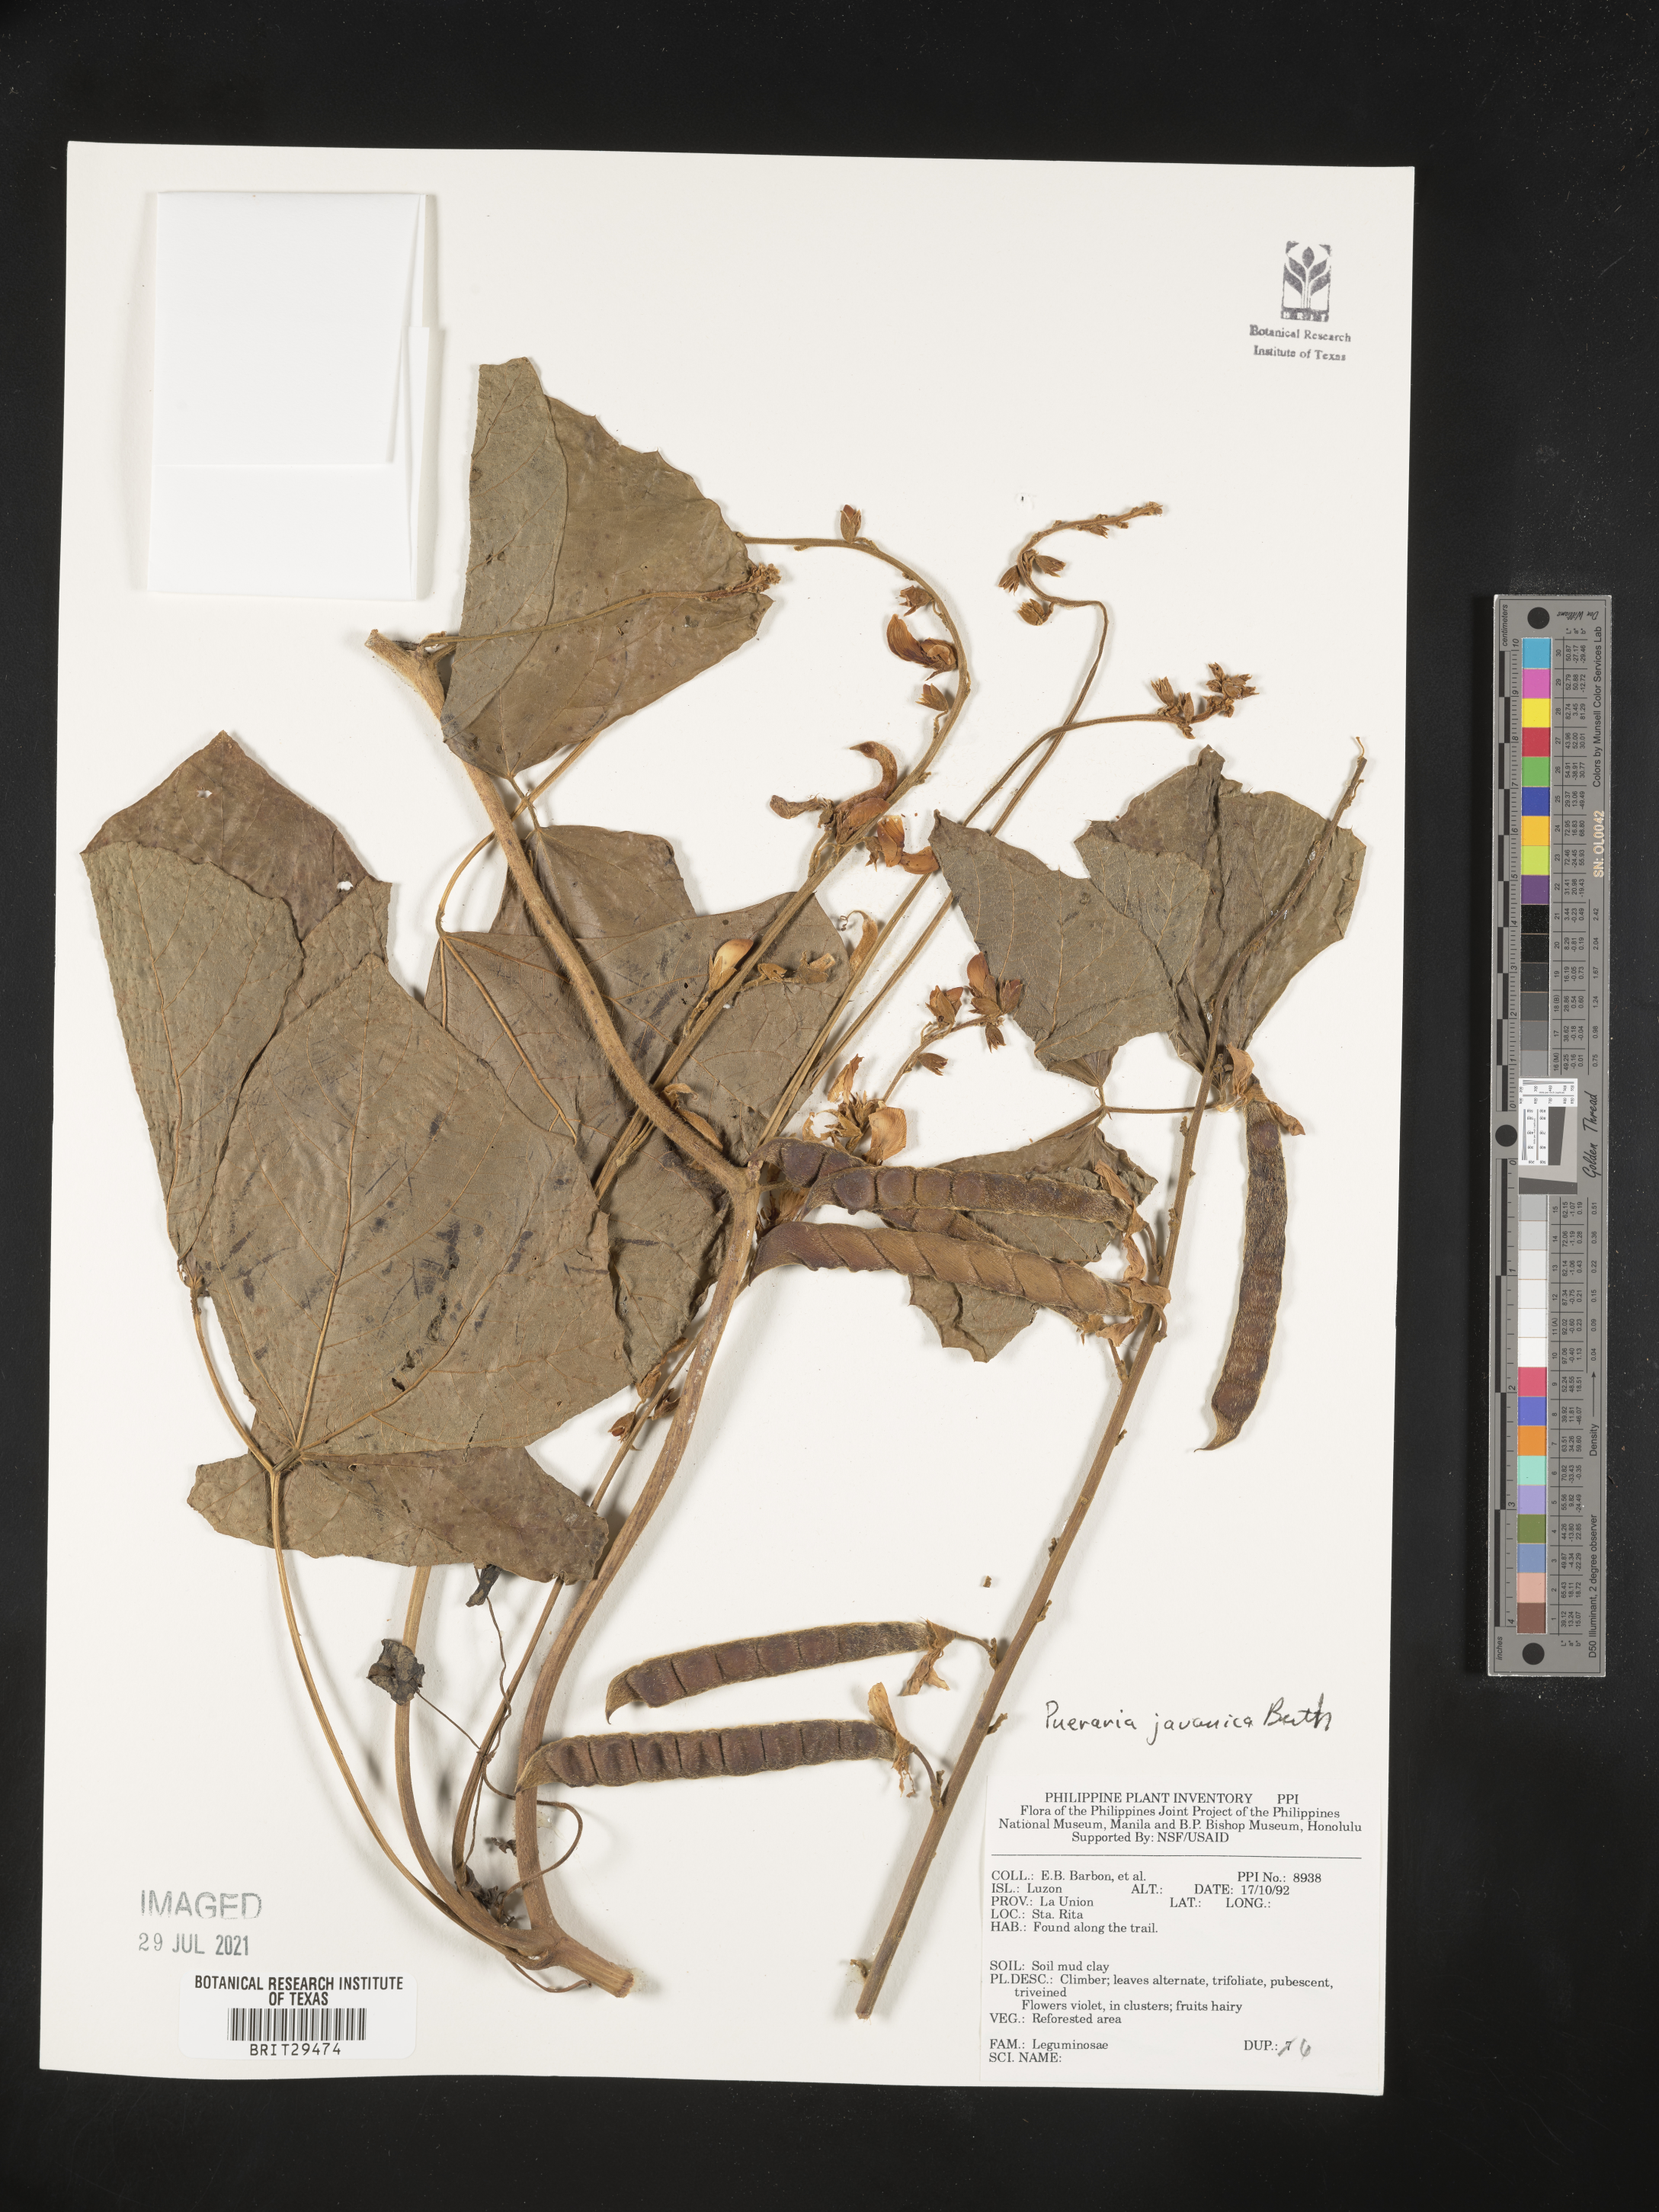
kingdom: Plantae
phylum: Tracheophyta
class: Magnoliopsida
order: Fabales
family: Fabaceae
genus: Neustanthus
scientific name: Neustanthus phaseoloides
